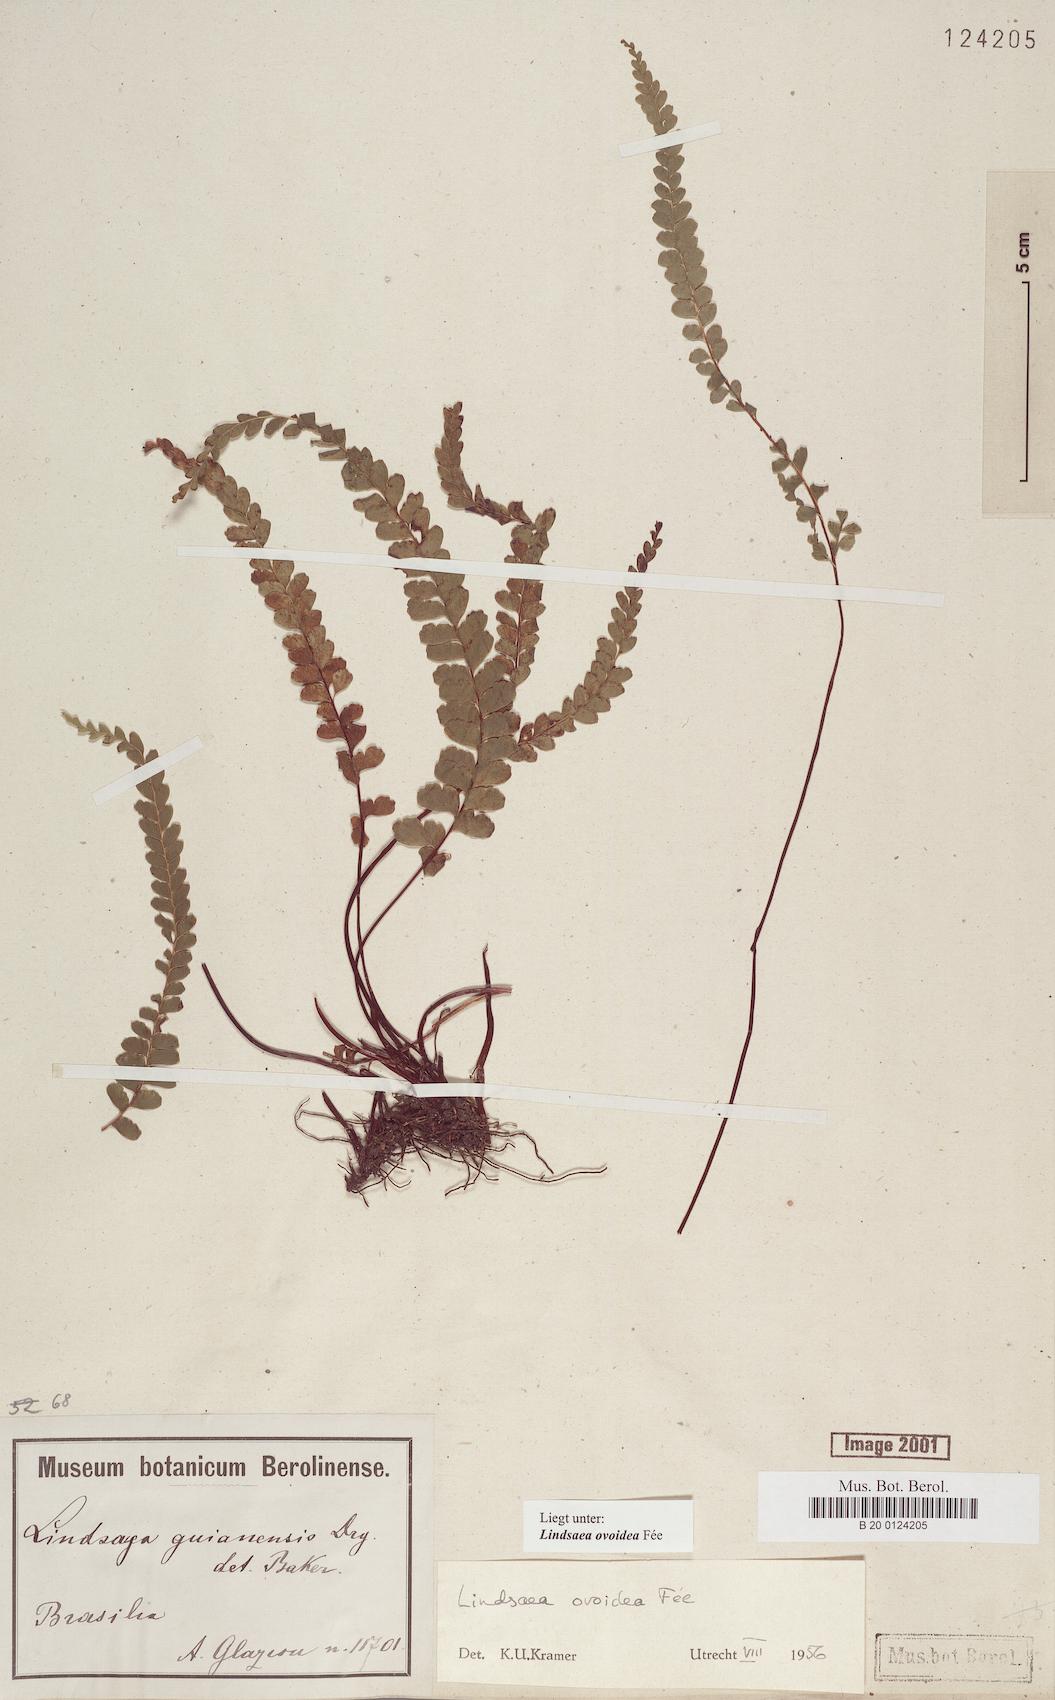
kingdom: Plantae
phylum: Tracheophyta
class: Polypodiopsida
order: Polypodiales
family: Lindsaeaceae
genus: Lindsaea
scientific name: Lindsaea ovoidea
